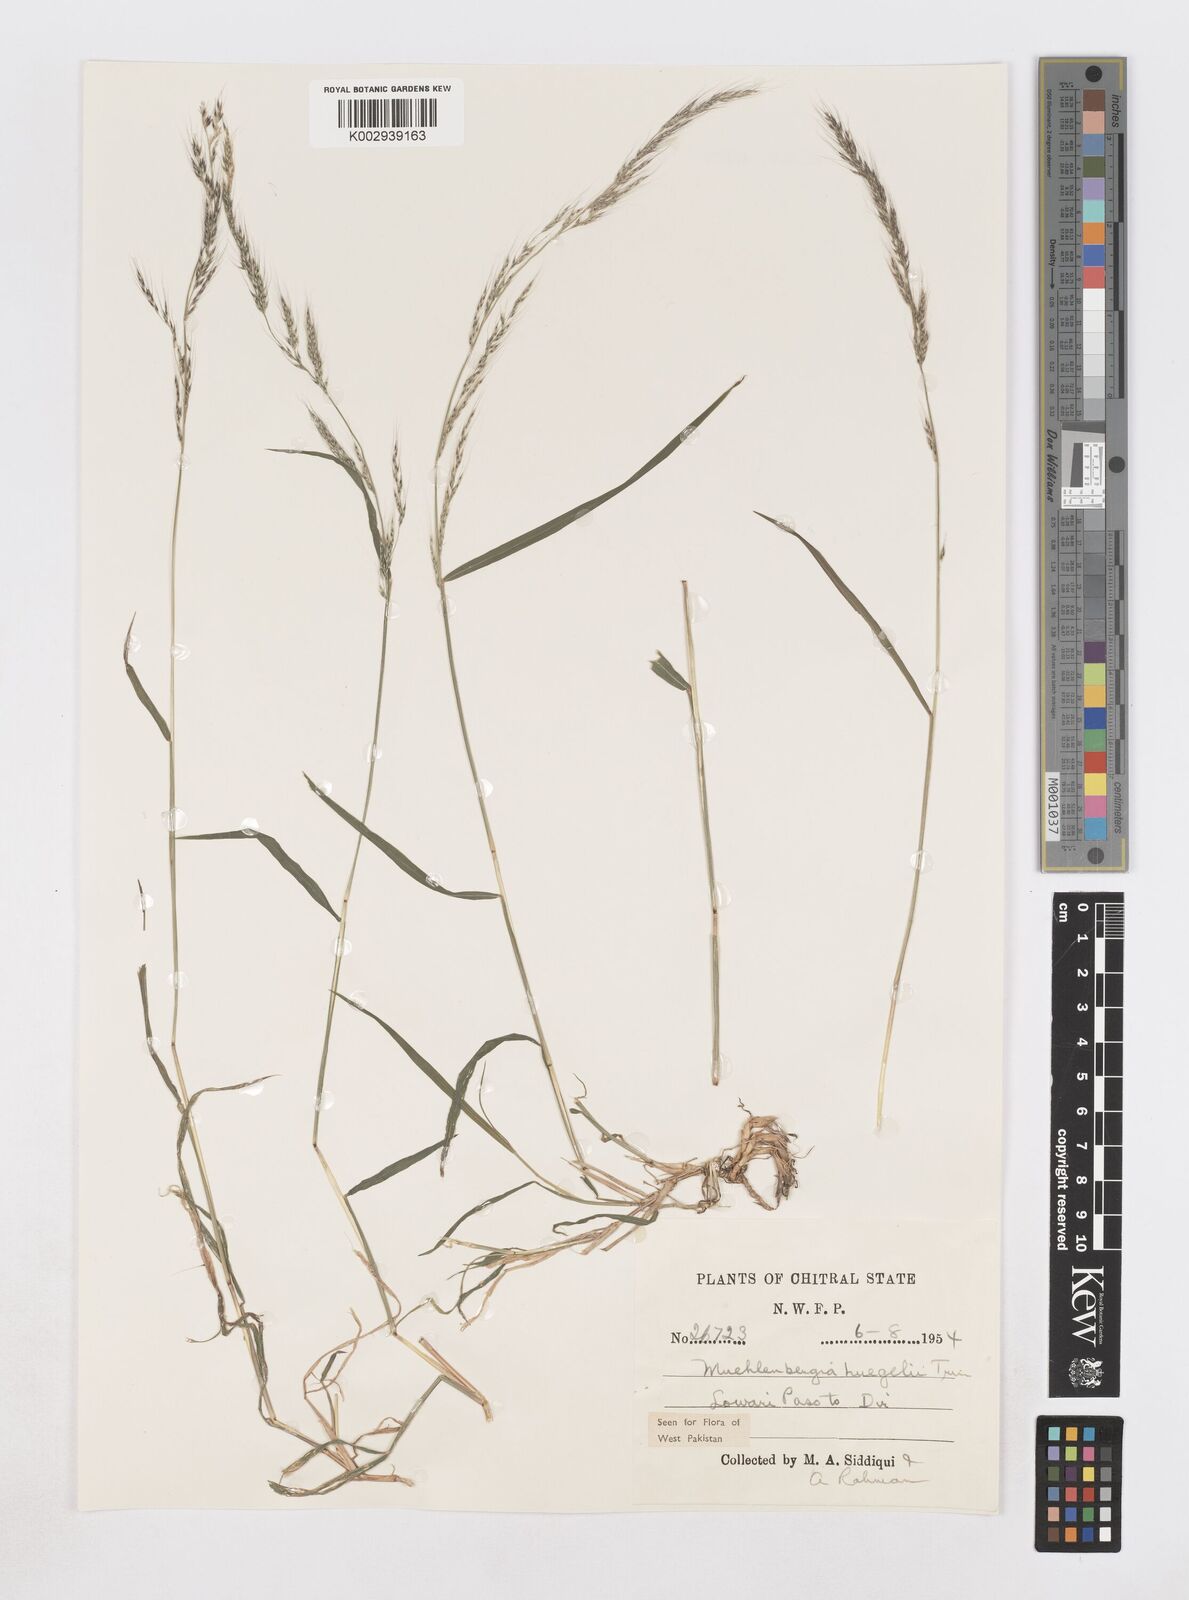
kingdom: Plantae
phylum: Tracheophyta
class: Liliopsida
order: Poales
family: Poaceae
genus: Muhlenbergia
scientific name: Muhlenbergia huegelii
